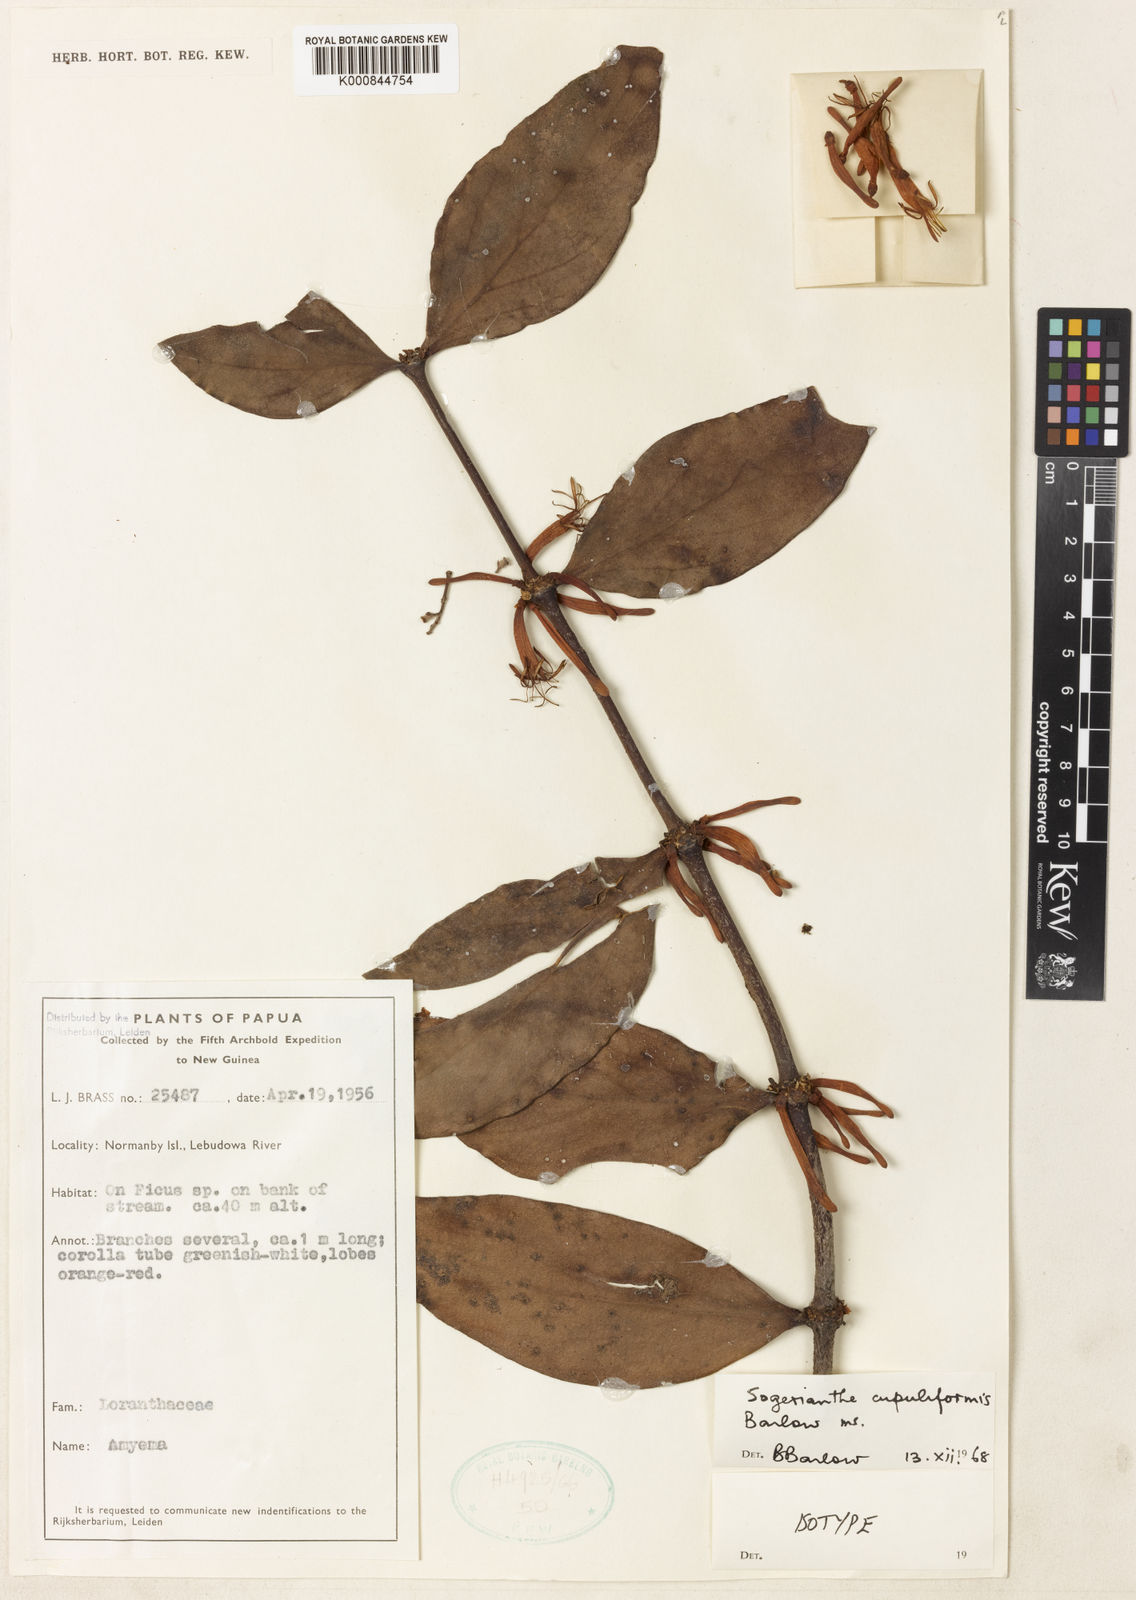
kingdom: Plantae
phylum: Tracheophyta
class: Magnoliopsida
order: Santalales
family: Loranthaceae
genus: Sogerianthe
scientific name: Sogerianthe cupuliformis
